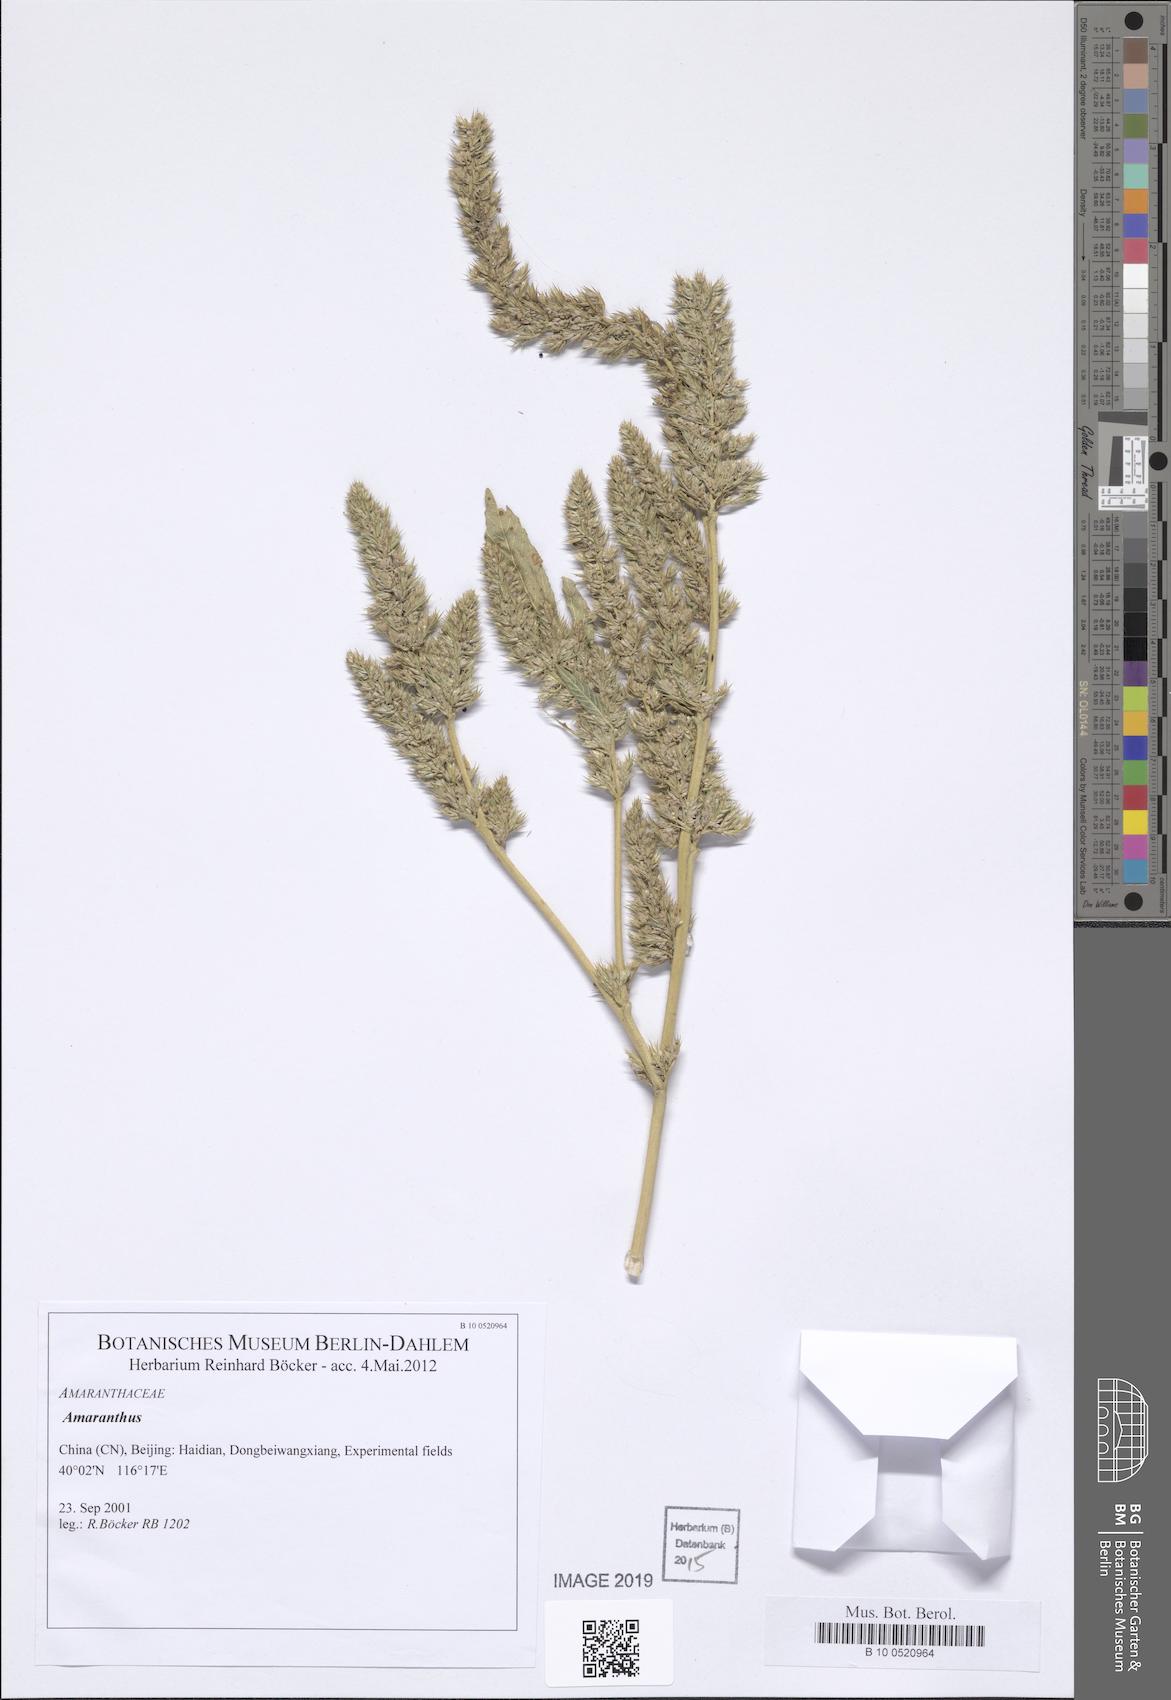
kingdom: Plantae
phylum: Tracheophyta
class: Magnoliopsida
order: Caryophyllales
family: Amaranthaceae
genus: Amaranthus
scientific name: Amaranthus
